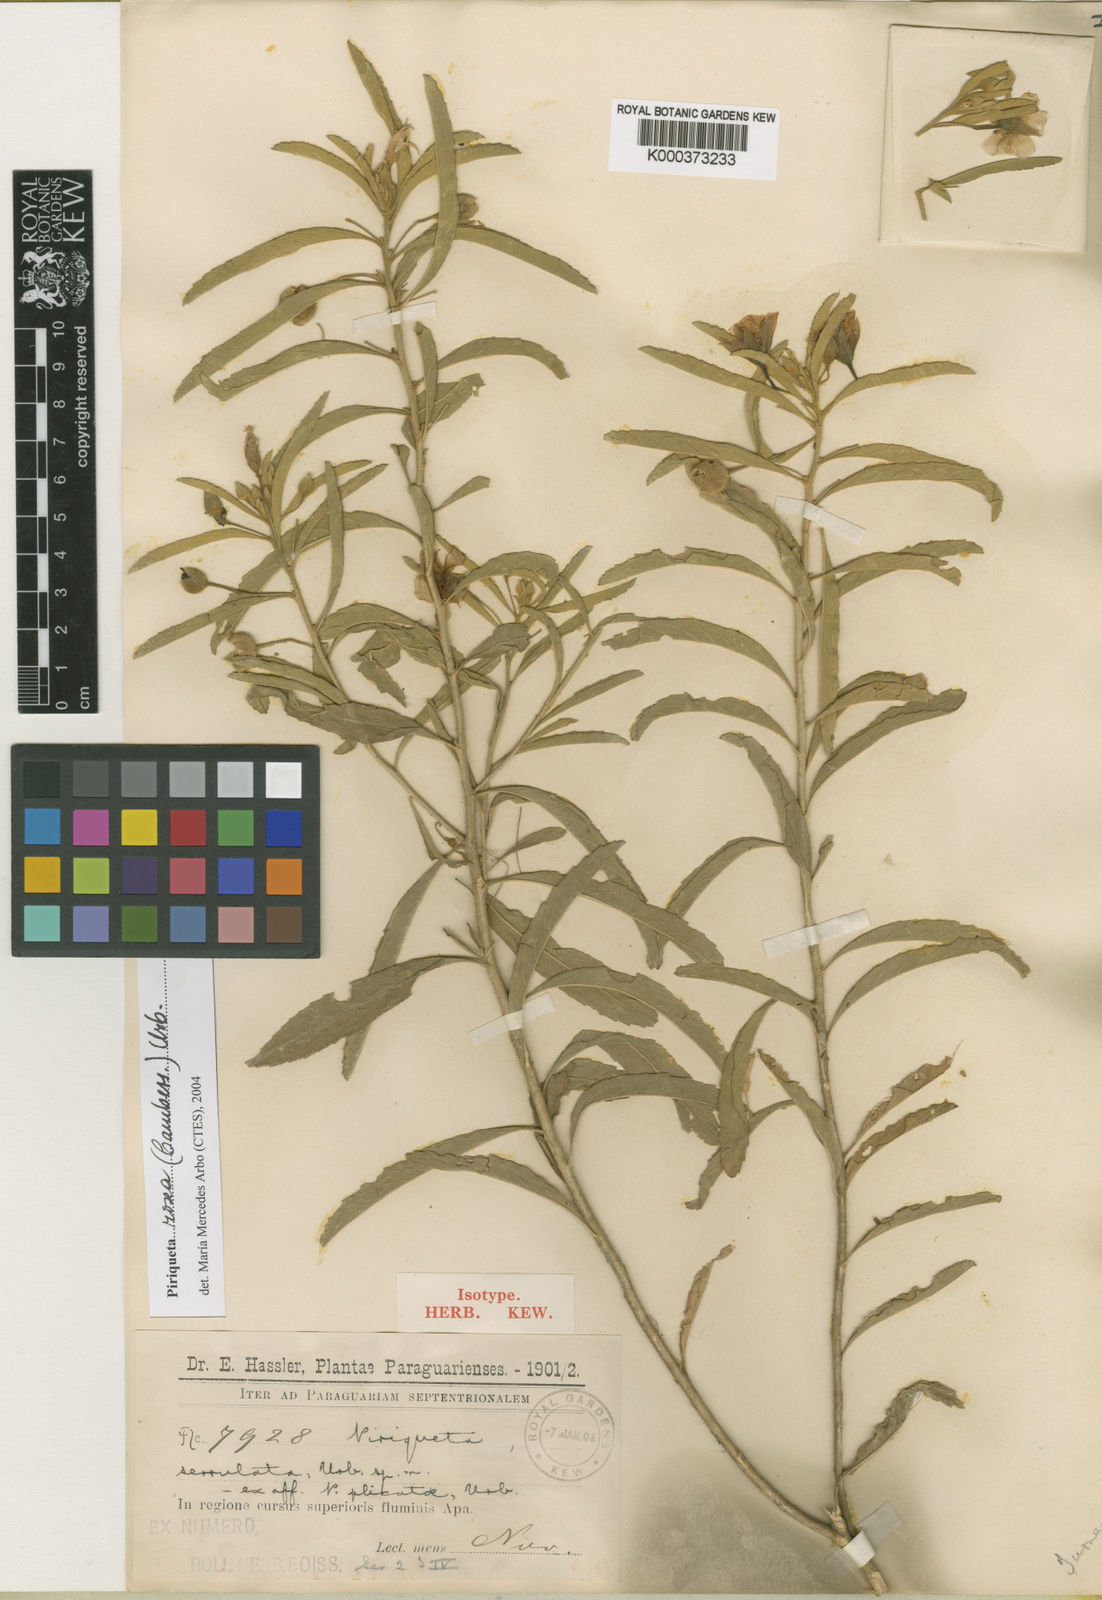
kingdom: Plantae
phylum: Tracheophyta
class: Magnoliopsida
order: Malpighiales
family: Turneraceae
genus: Piriqueta
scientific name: Piriqueta
